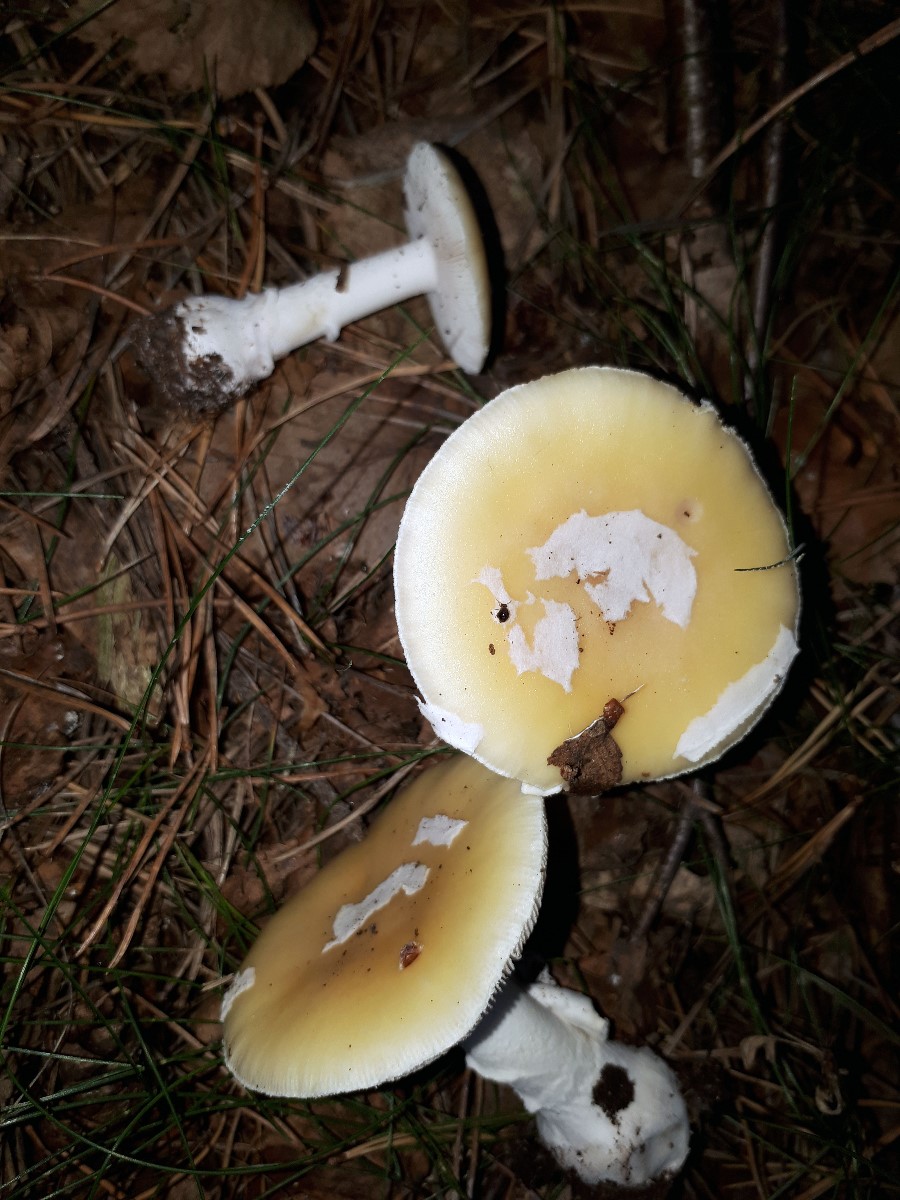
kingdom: Fungi
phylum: Basidiomycota
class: Agaricomycetes
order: Agaricales
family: Amanitaceae
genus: Amanita
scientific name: Amanita gemmata
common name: okkergul fluesvamp
